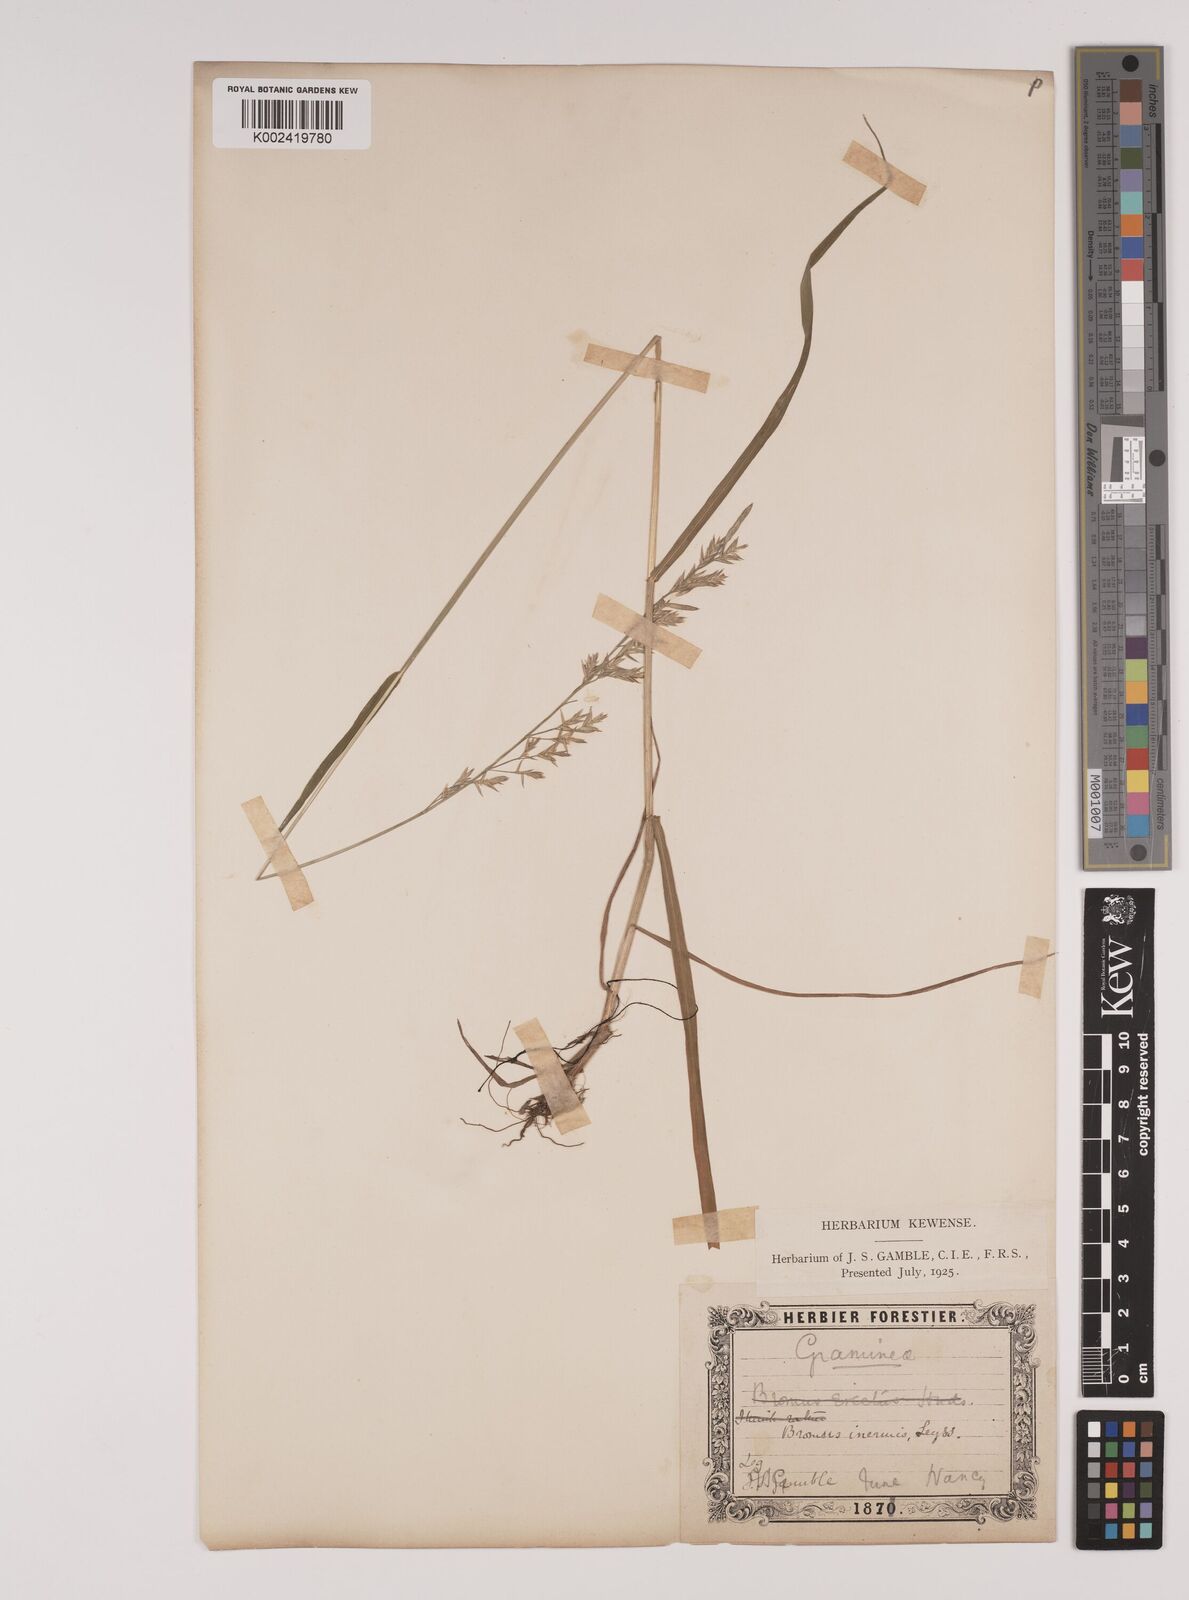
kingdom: Plantae
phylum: Tracheophyta
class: Liliopsida
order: Poales
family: Poaceae
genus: Lolium
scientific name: Lolium pratense
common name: Dover grass
